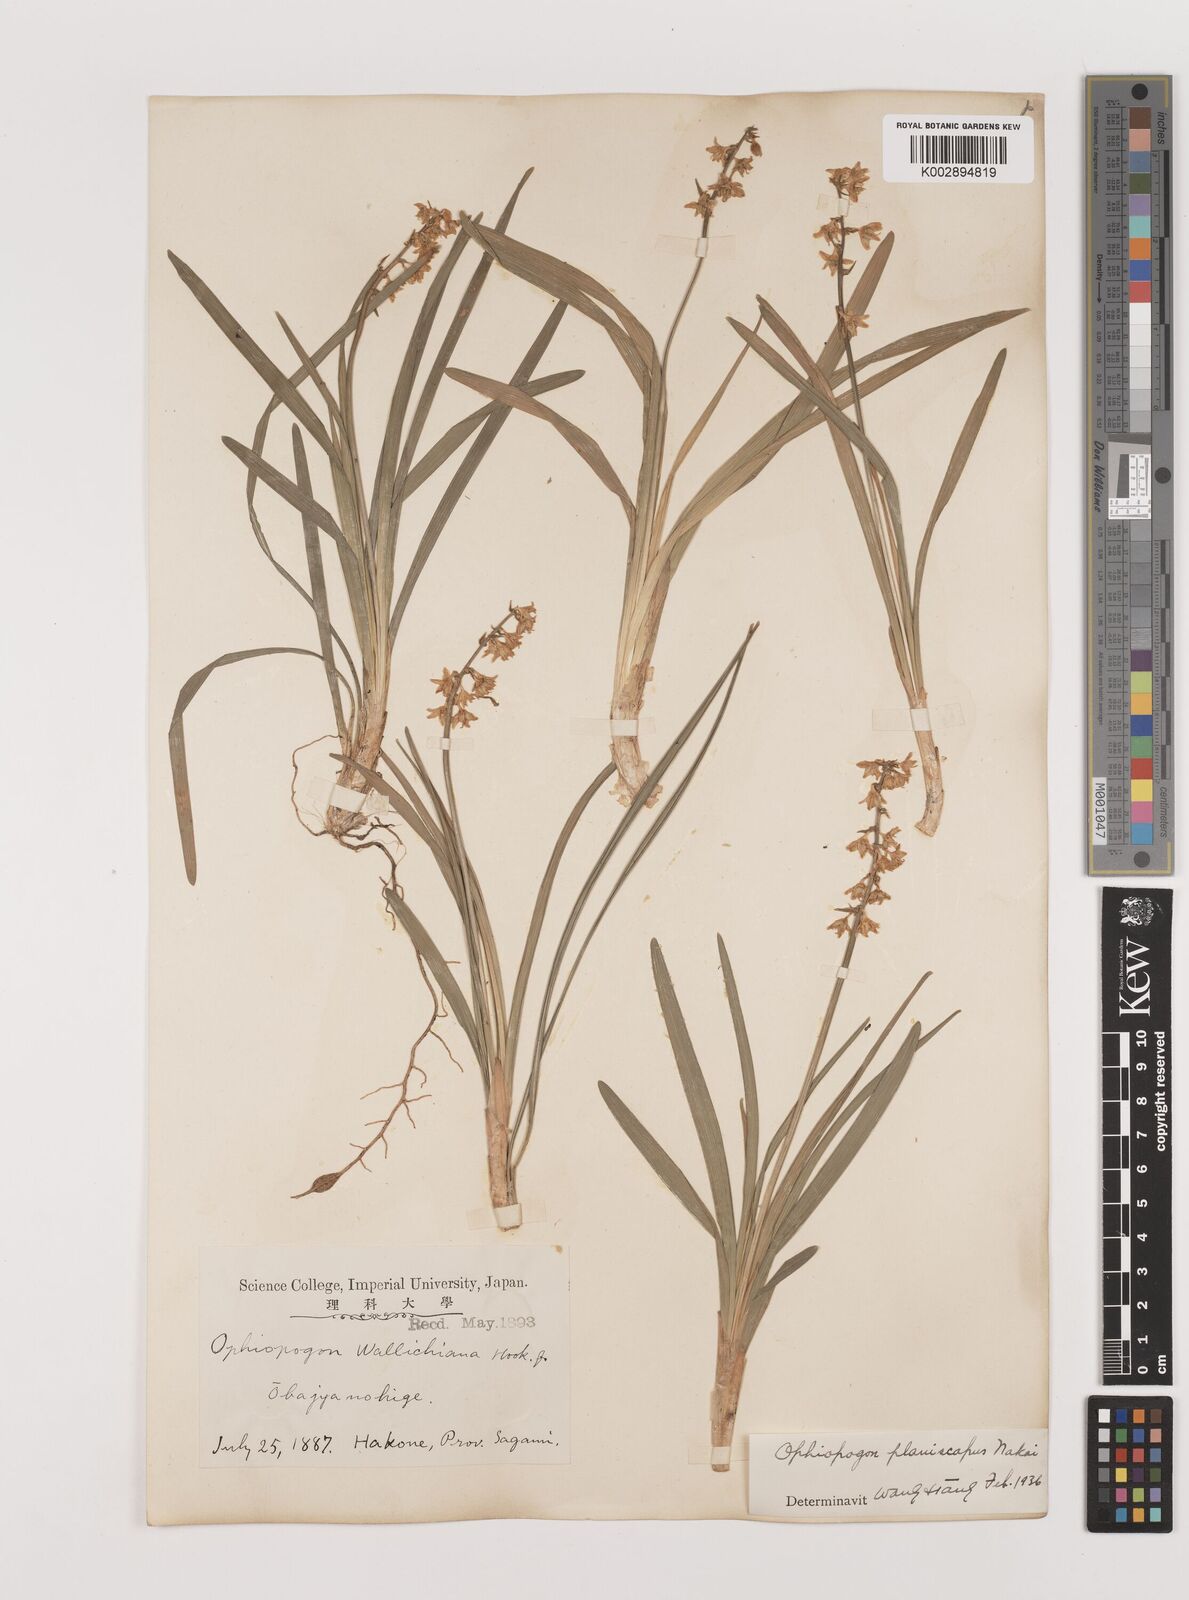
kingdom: Plantae
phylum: Tracheophyta
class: Liliopsida
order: Asparagales
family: Asparagaceae
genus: Ophiopogon
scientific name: Ophiopogon planiscapus
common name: Black mondo
